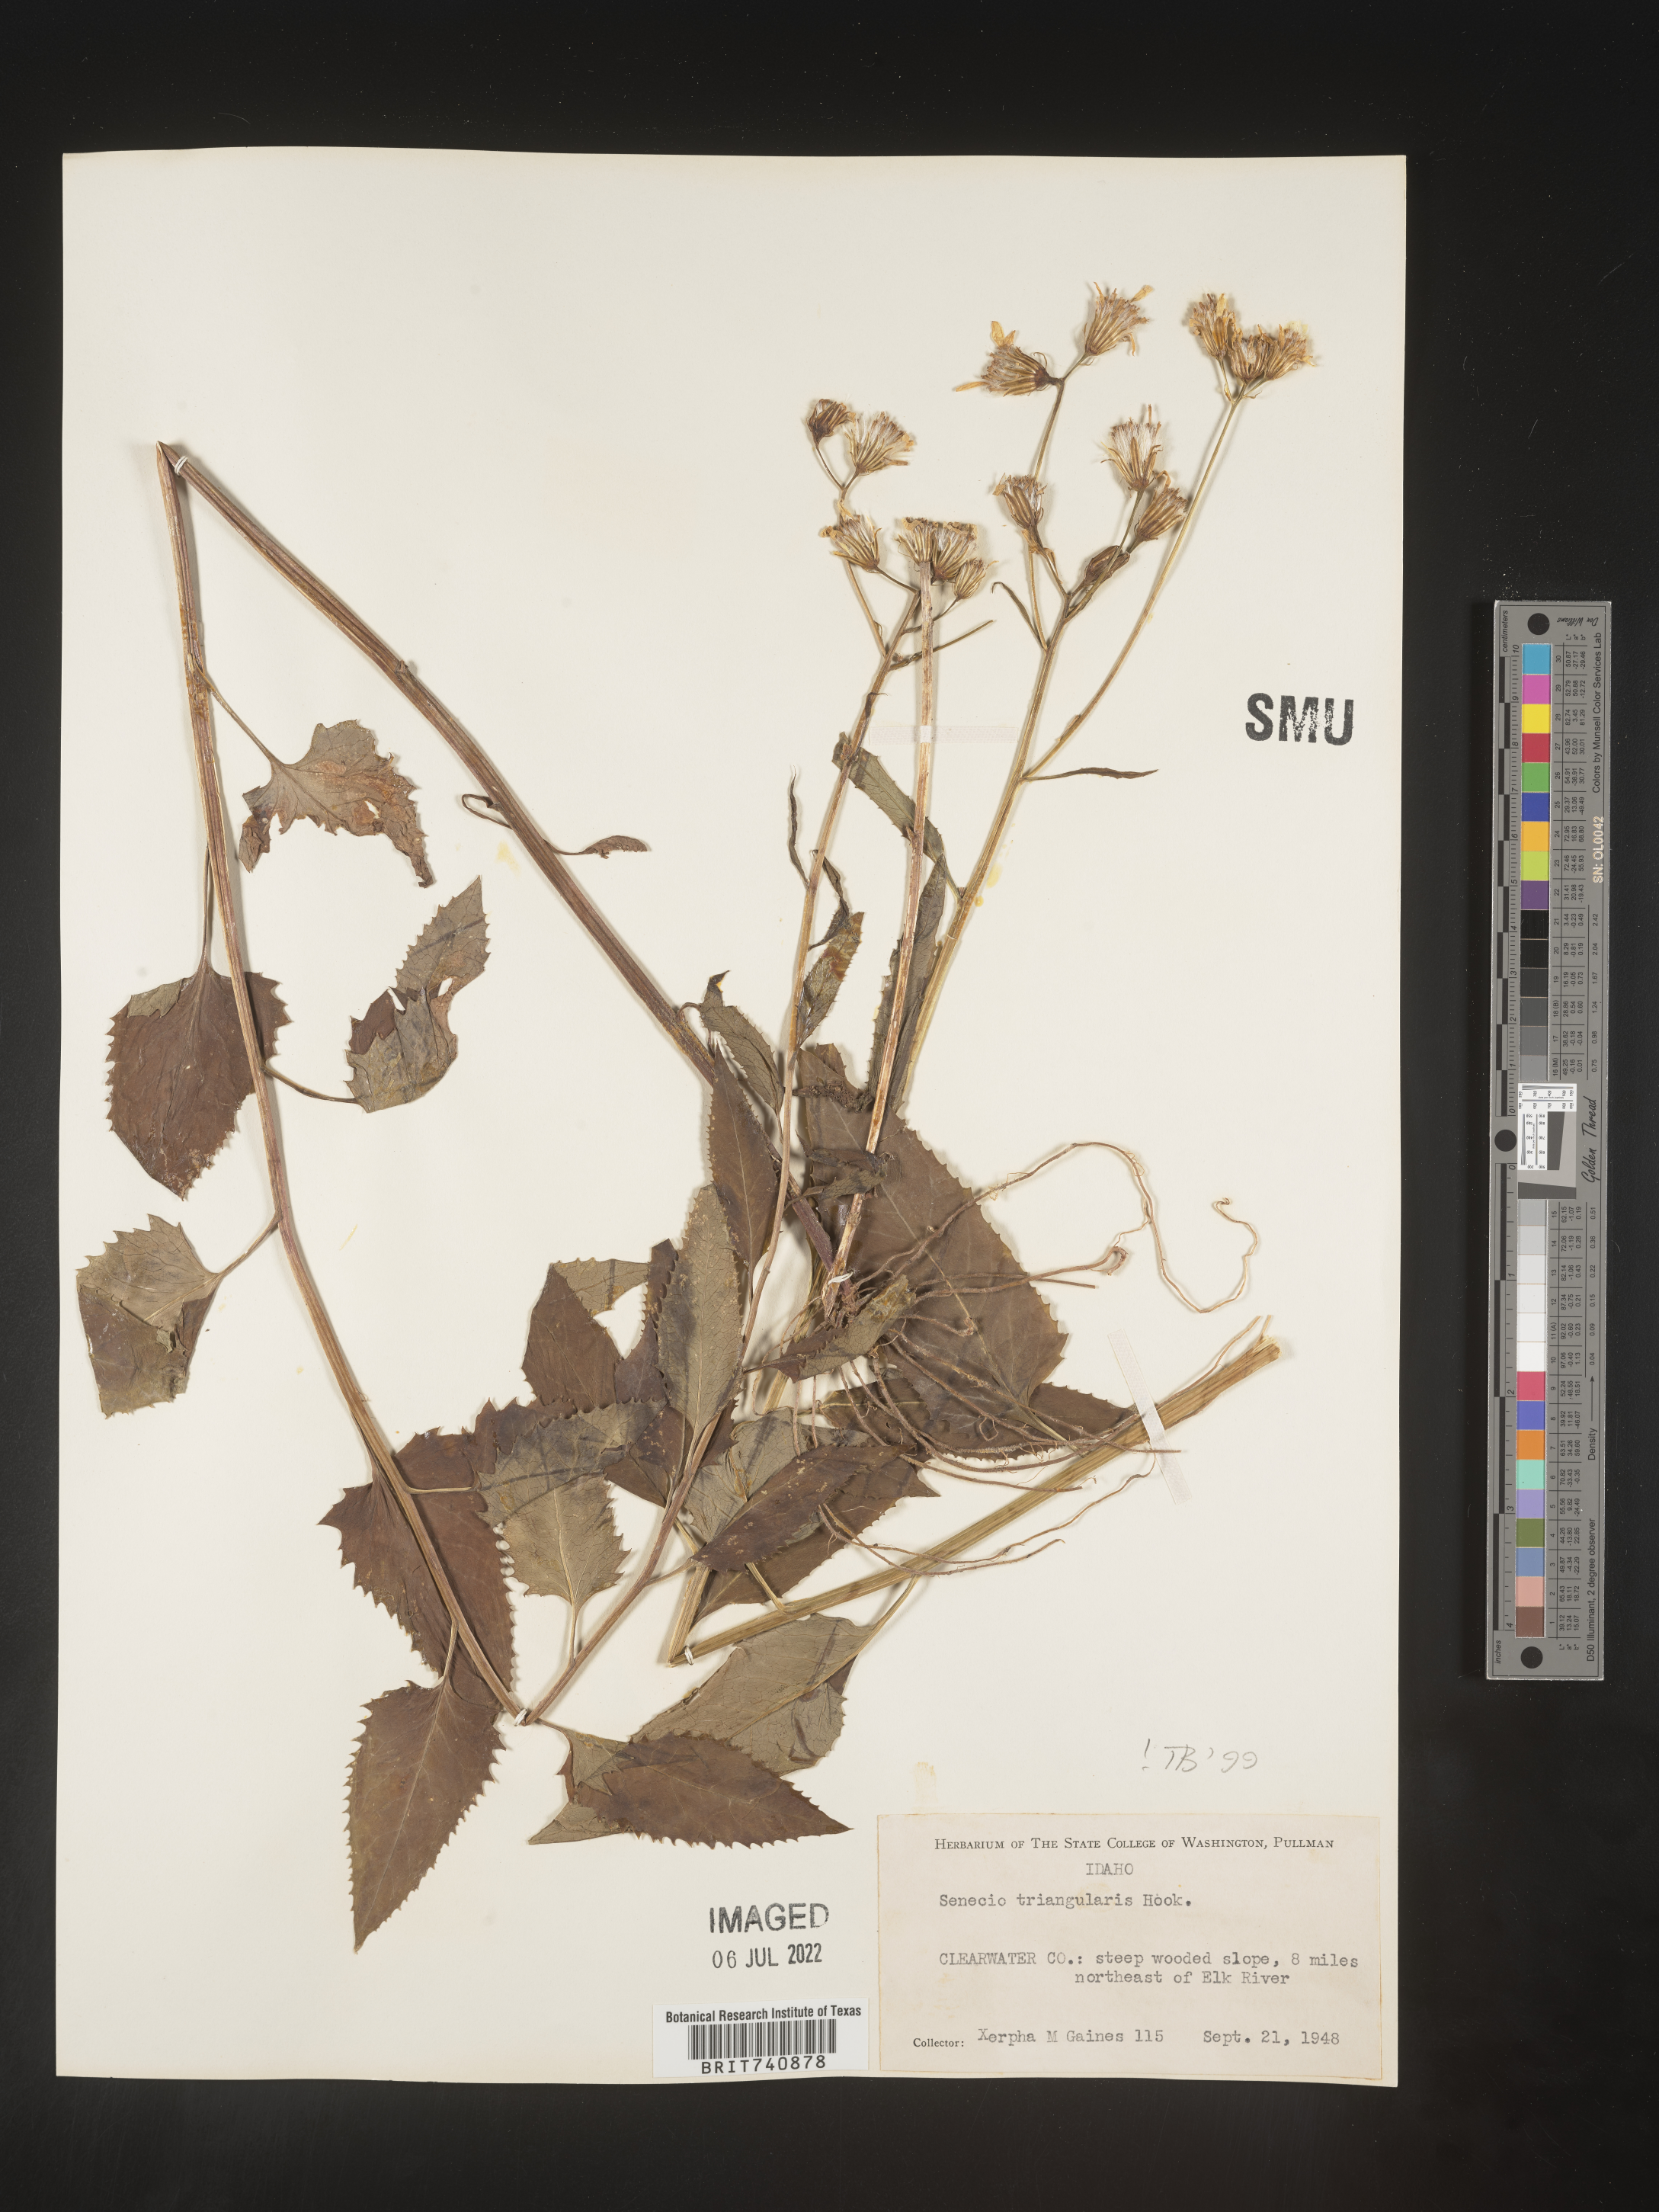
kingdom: Plantae
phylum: Tracheophyta
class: Magnoliopsida
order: Asterales
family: Asteraceae
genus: Senecio
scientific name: Senecio triangularis
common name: Arrowleaf butterweed
